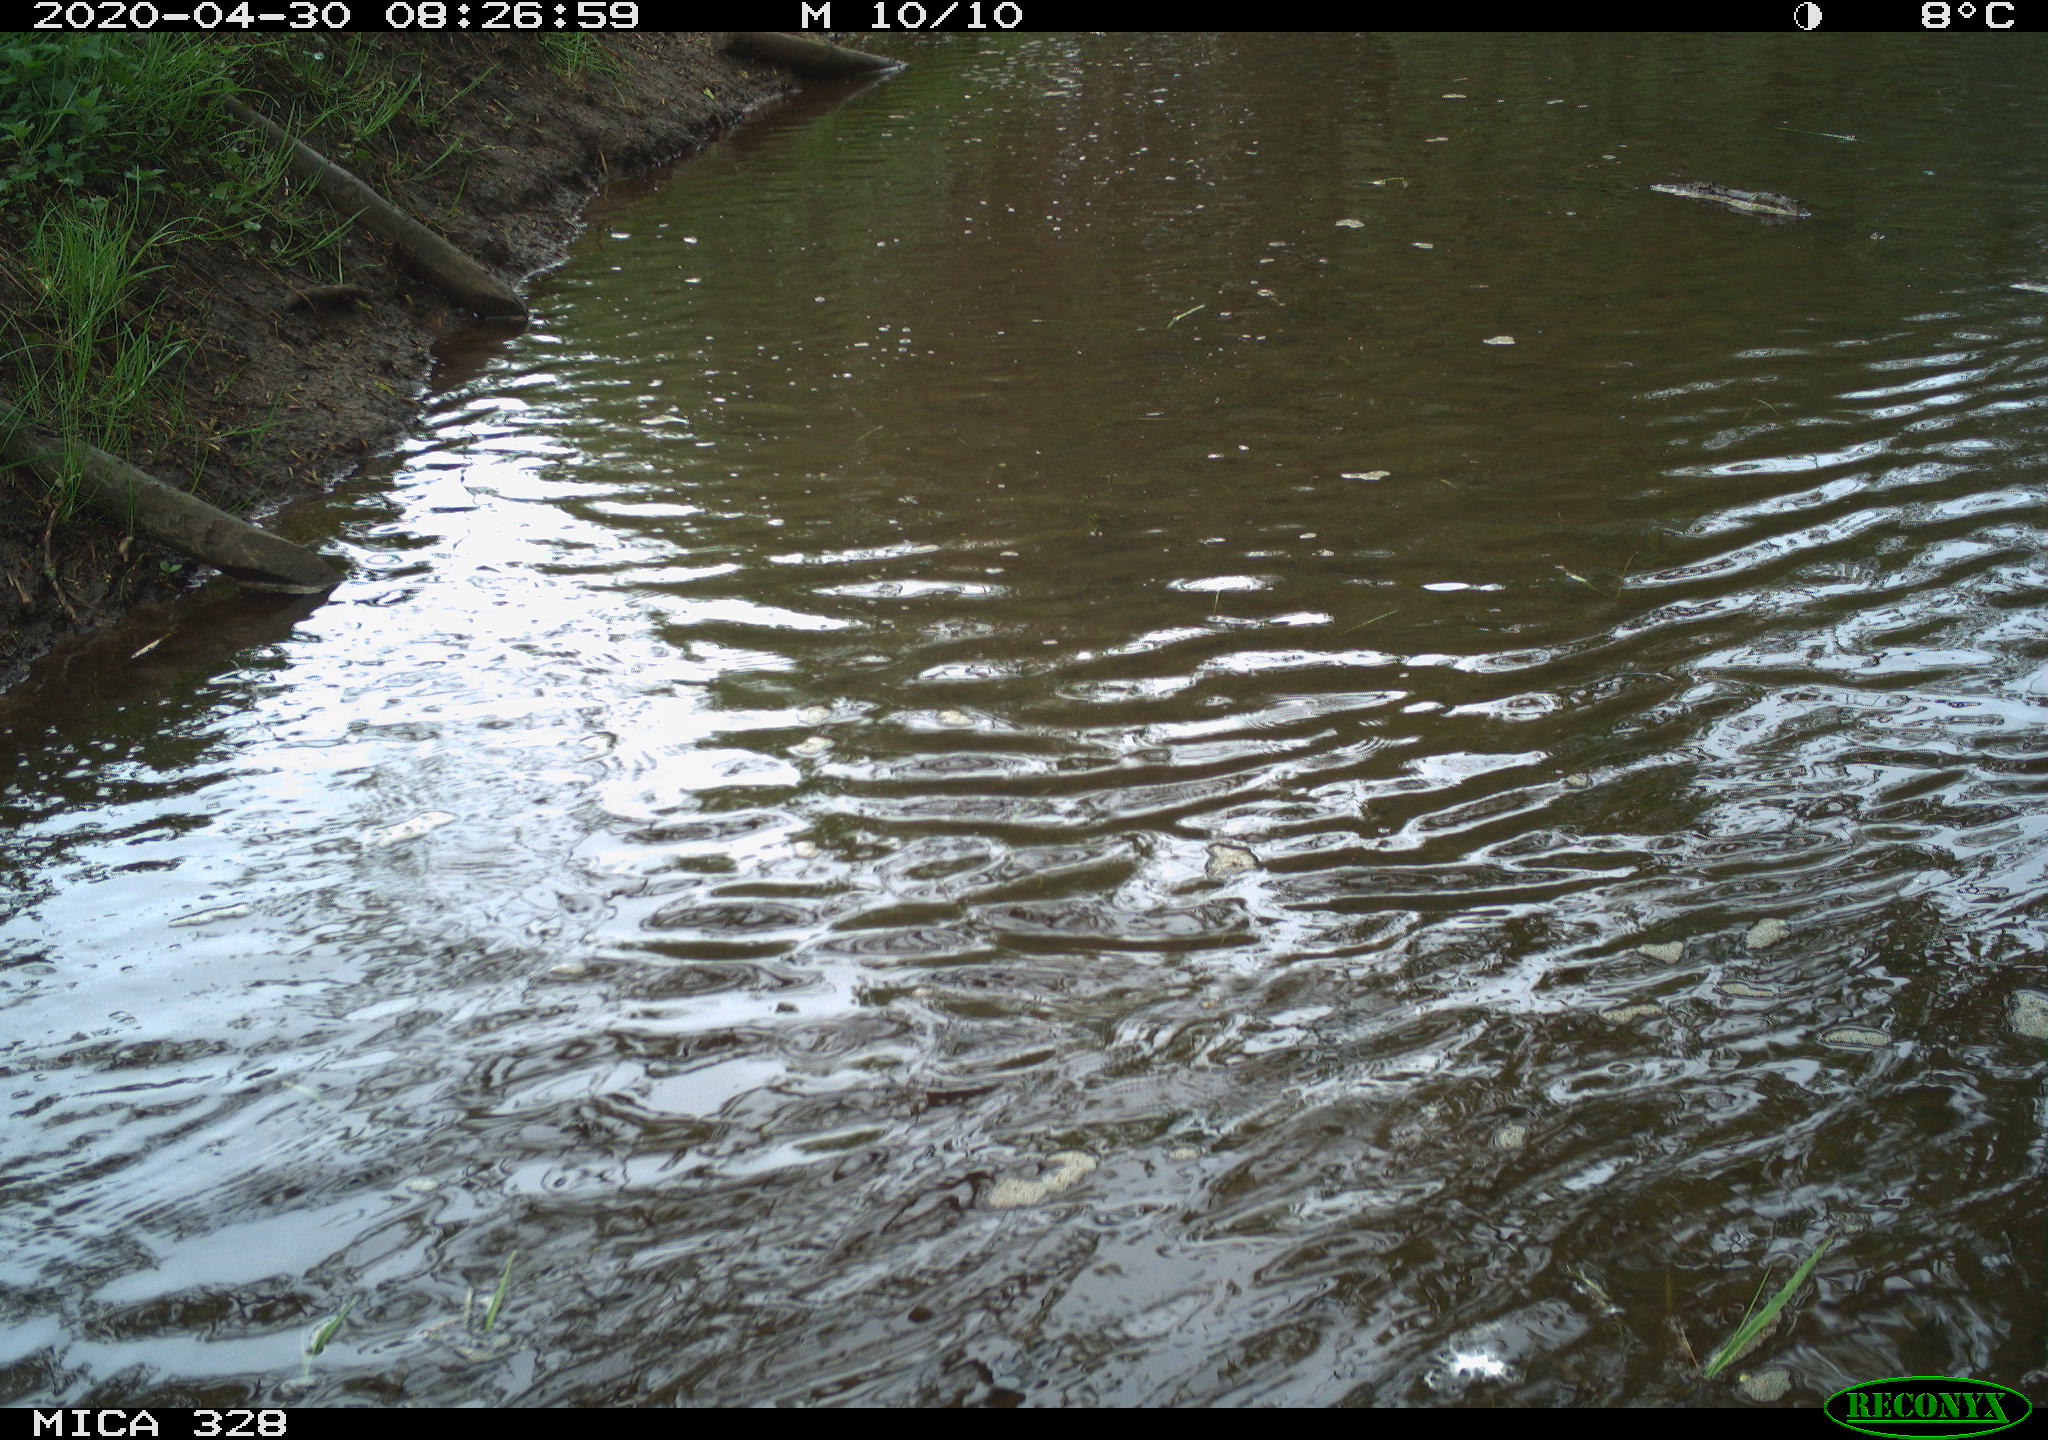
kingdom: Animalia
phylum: Chordata
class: Aves
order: Anseriformes
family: Anatidae
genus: Anas
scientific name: Anas platyrhynchos
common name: Mallard
